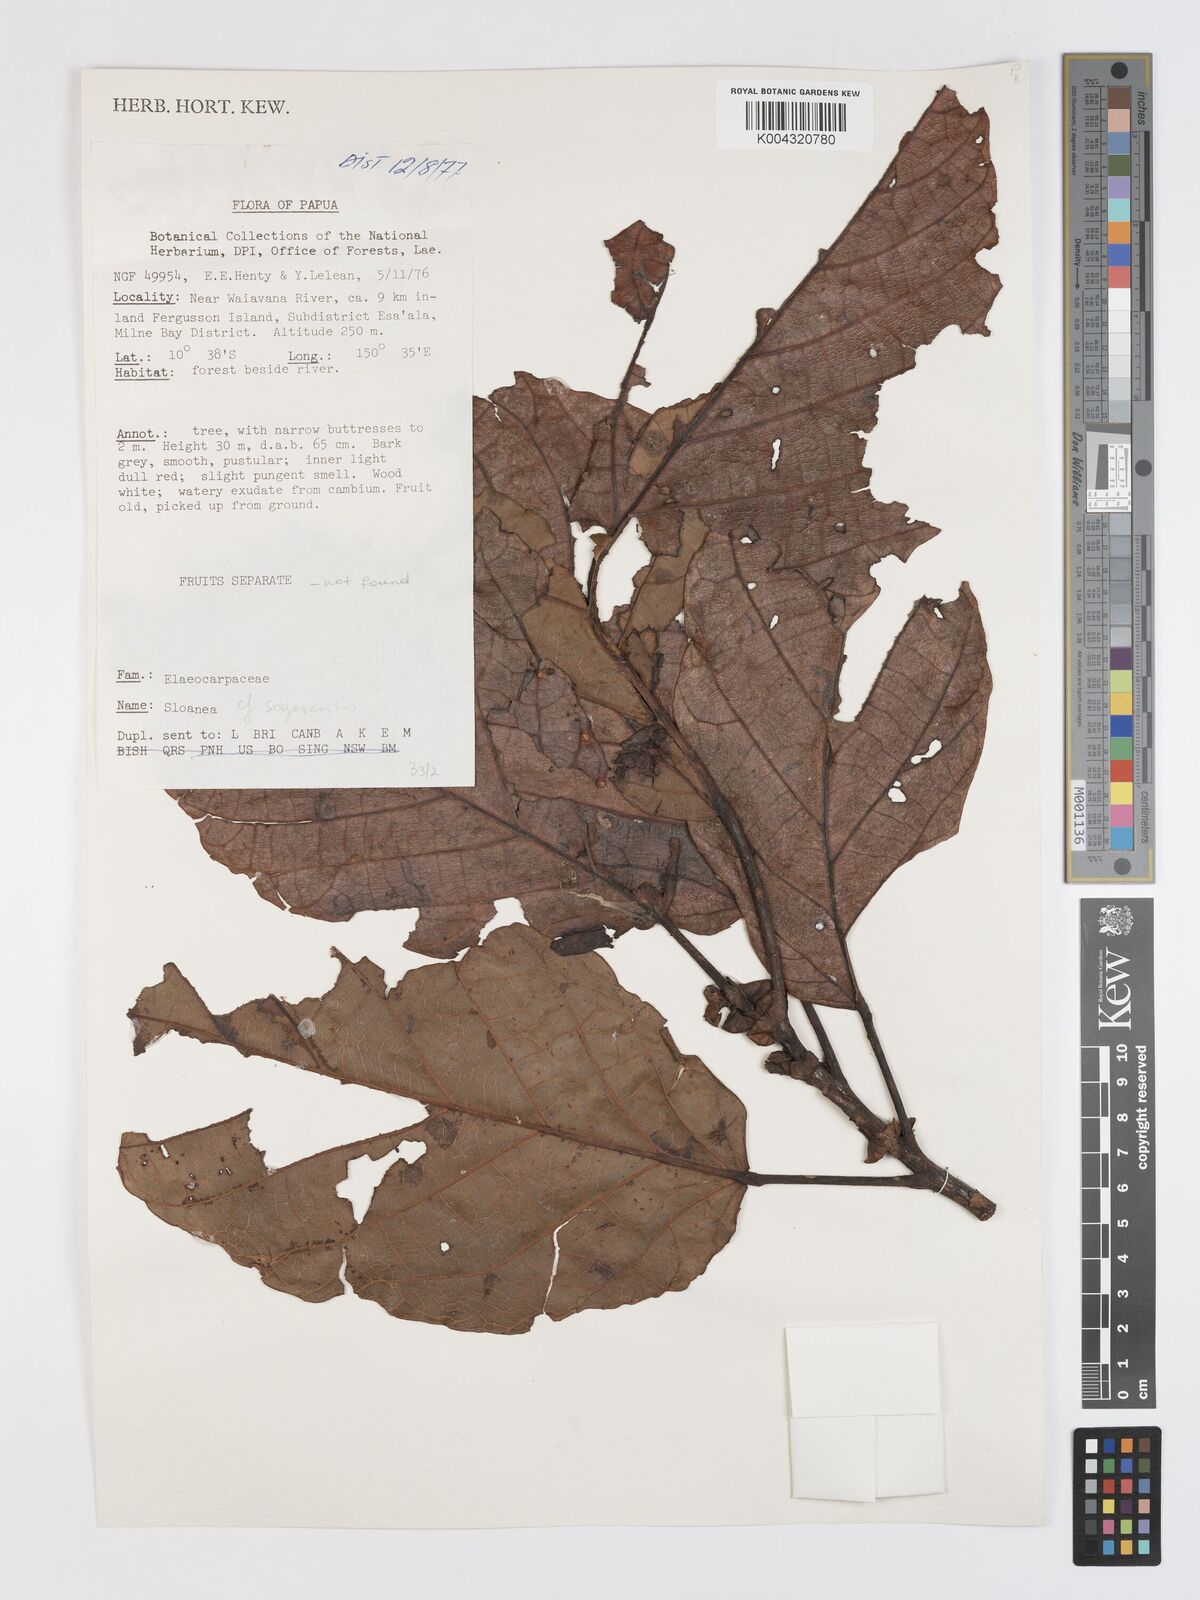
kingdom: Plantae
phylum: Tracheophyta
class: Magnoliopsida
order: Oxalidales
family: Elaeocarpaceae
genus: Sloanea
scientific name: Sloanea sogerensis
